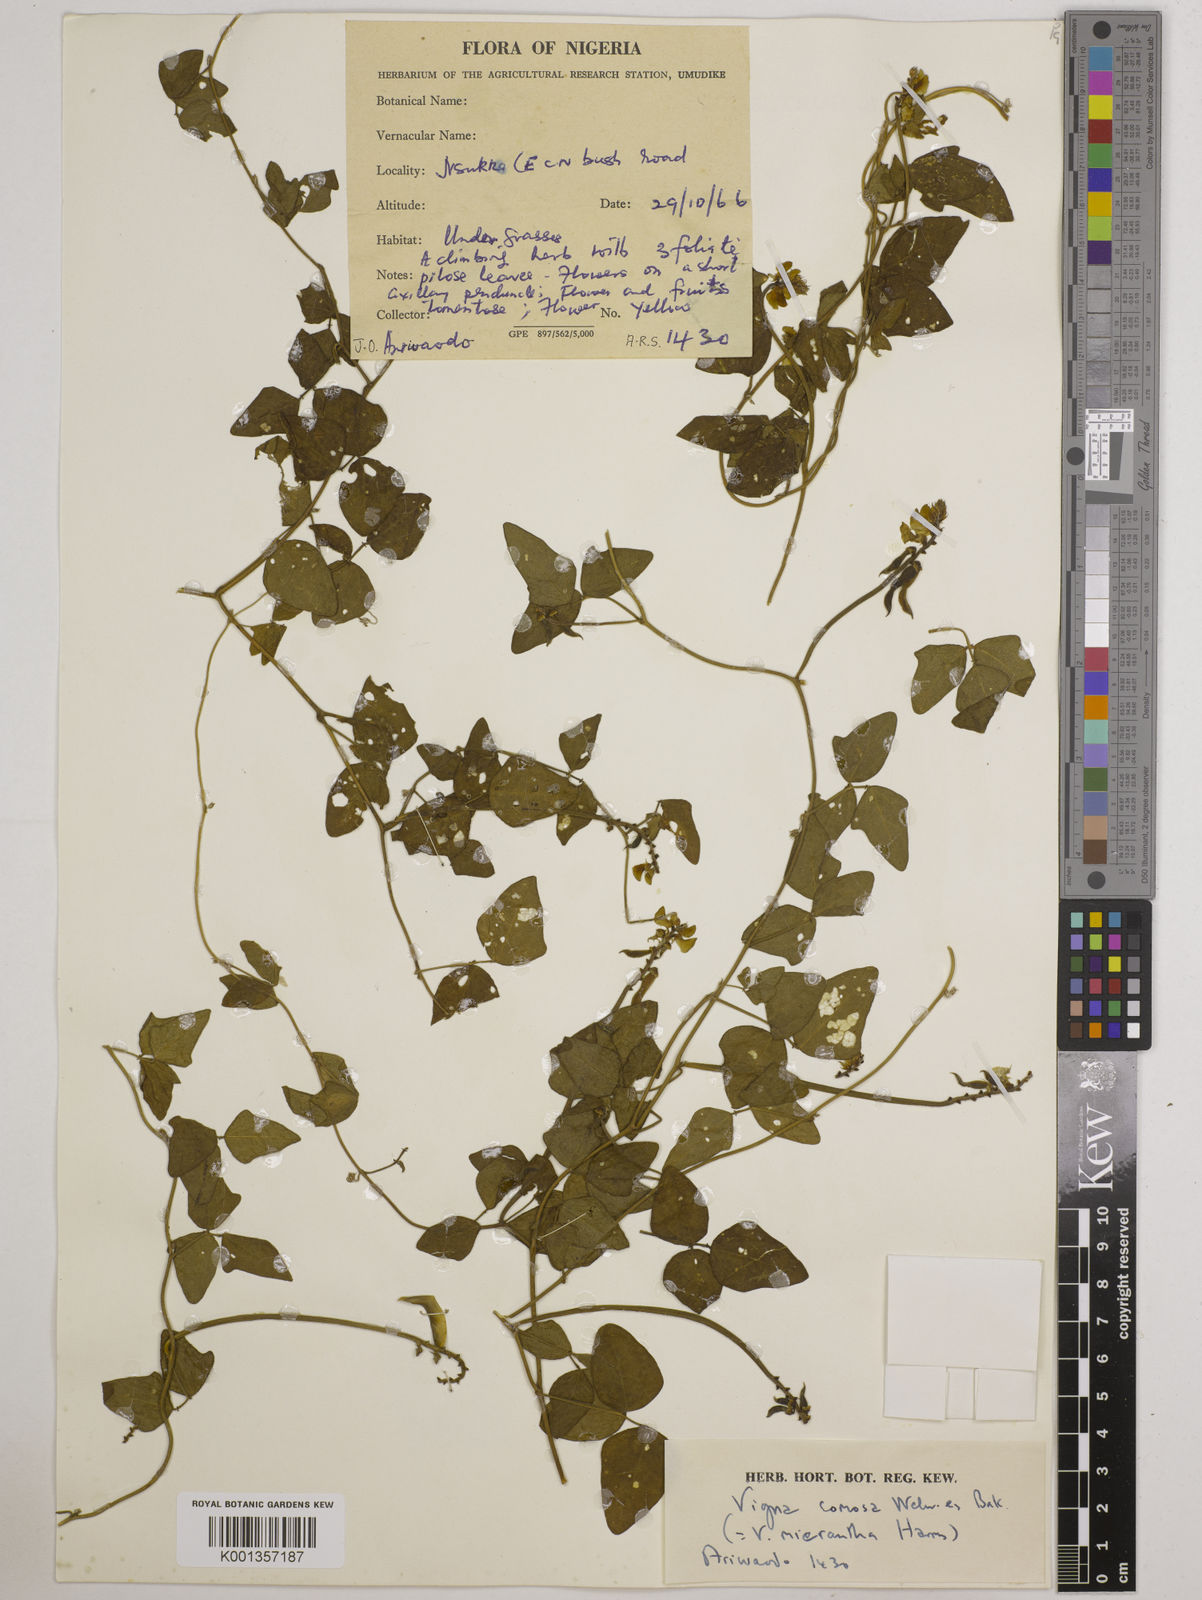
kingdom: Plantae
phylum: Tracheophyta
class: Magnoliopsida
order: Fabales
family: Fabaceae
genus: Vigna
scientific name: Vigna comosa
